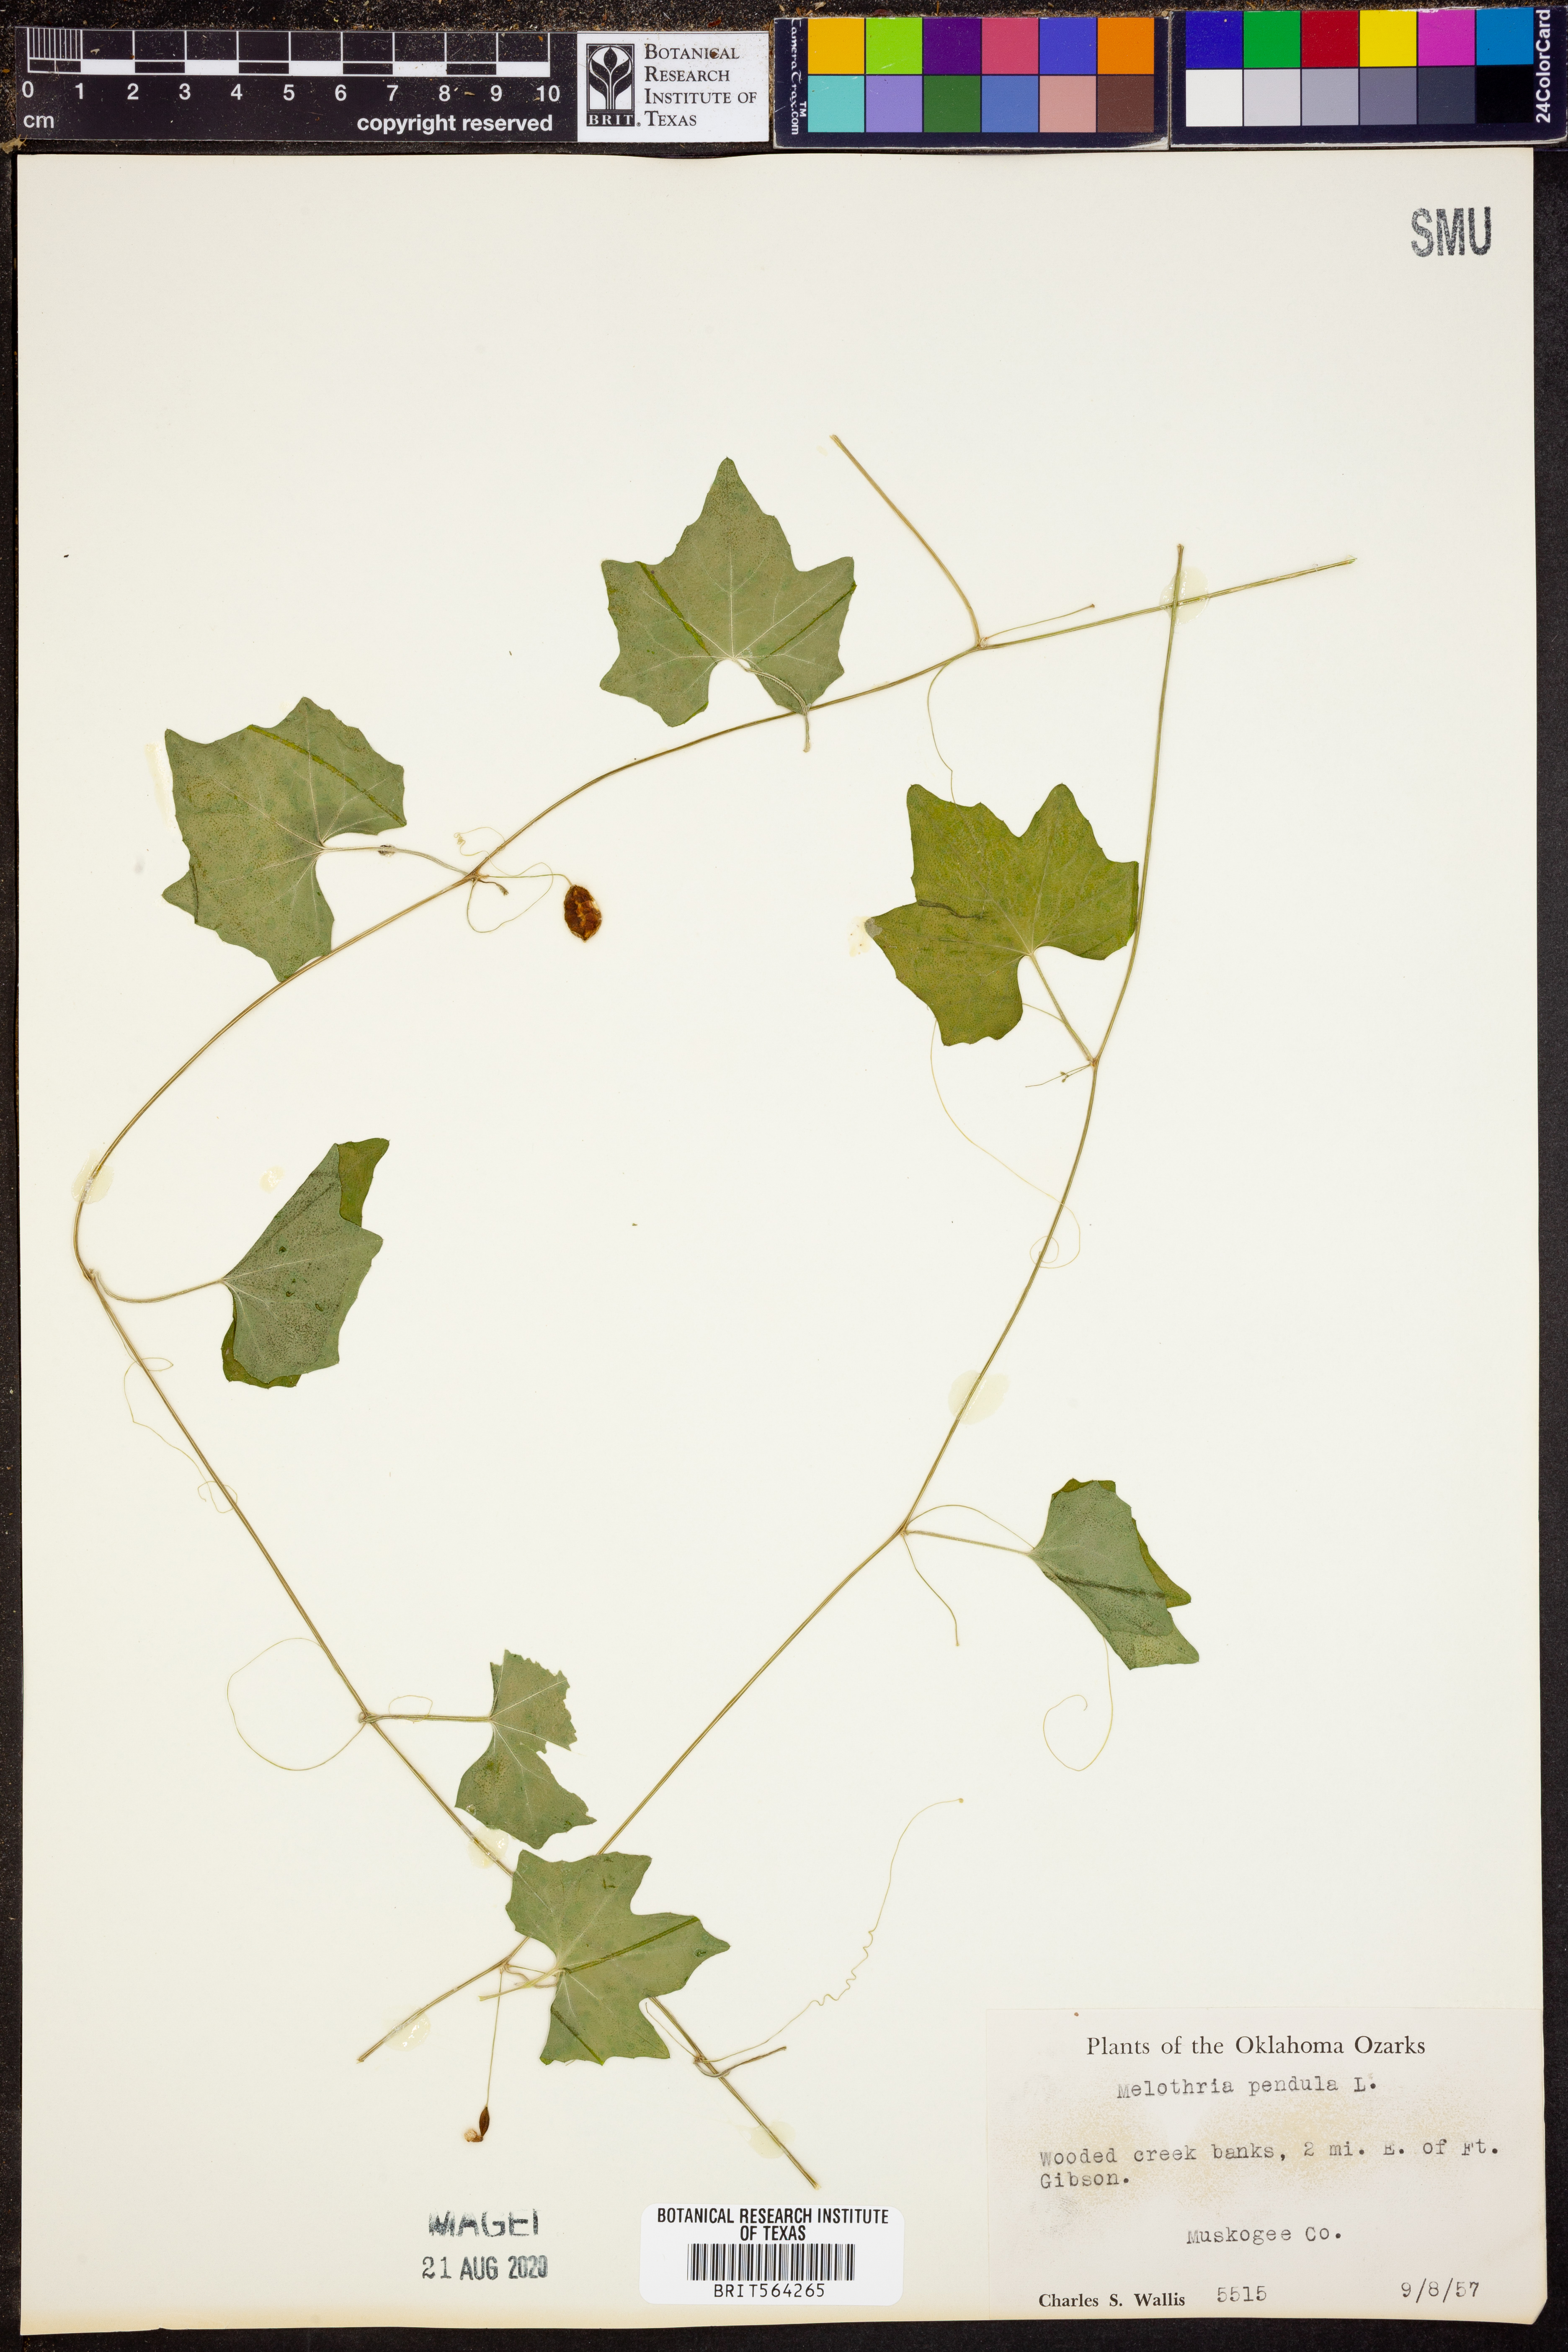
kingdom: Plantae
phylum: Tracheophyta
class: Magnoliopsida
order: Cucurbitales
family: Cucurbitaceae
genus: Melothria
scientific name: Melothria pendula
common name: Creeping-cucumber
